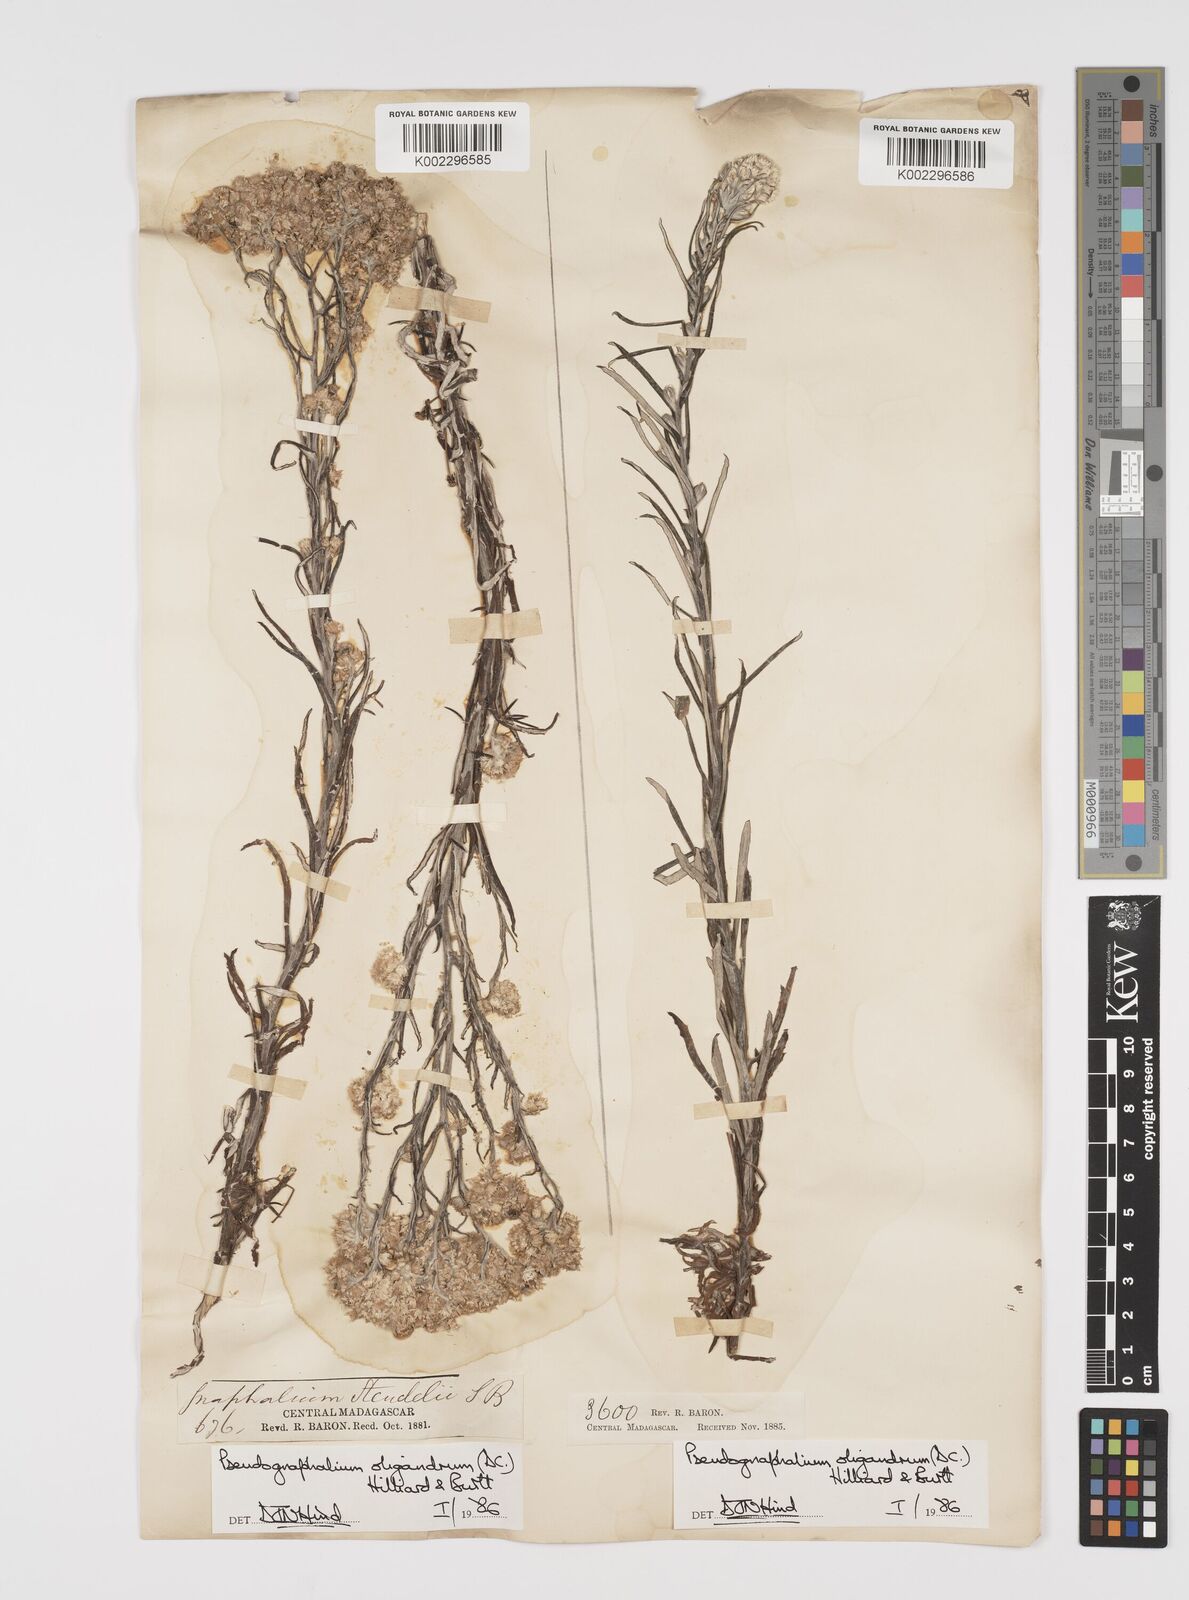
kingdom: Plantae
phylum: Tracheophyta
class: Magnoliopsida
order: Asterales
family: Asteraceae
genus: Pseudognaphalium
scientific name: Pseudognaphalium oligandrum
